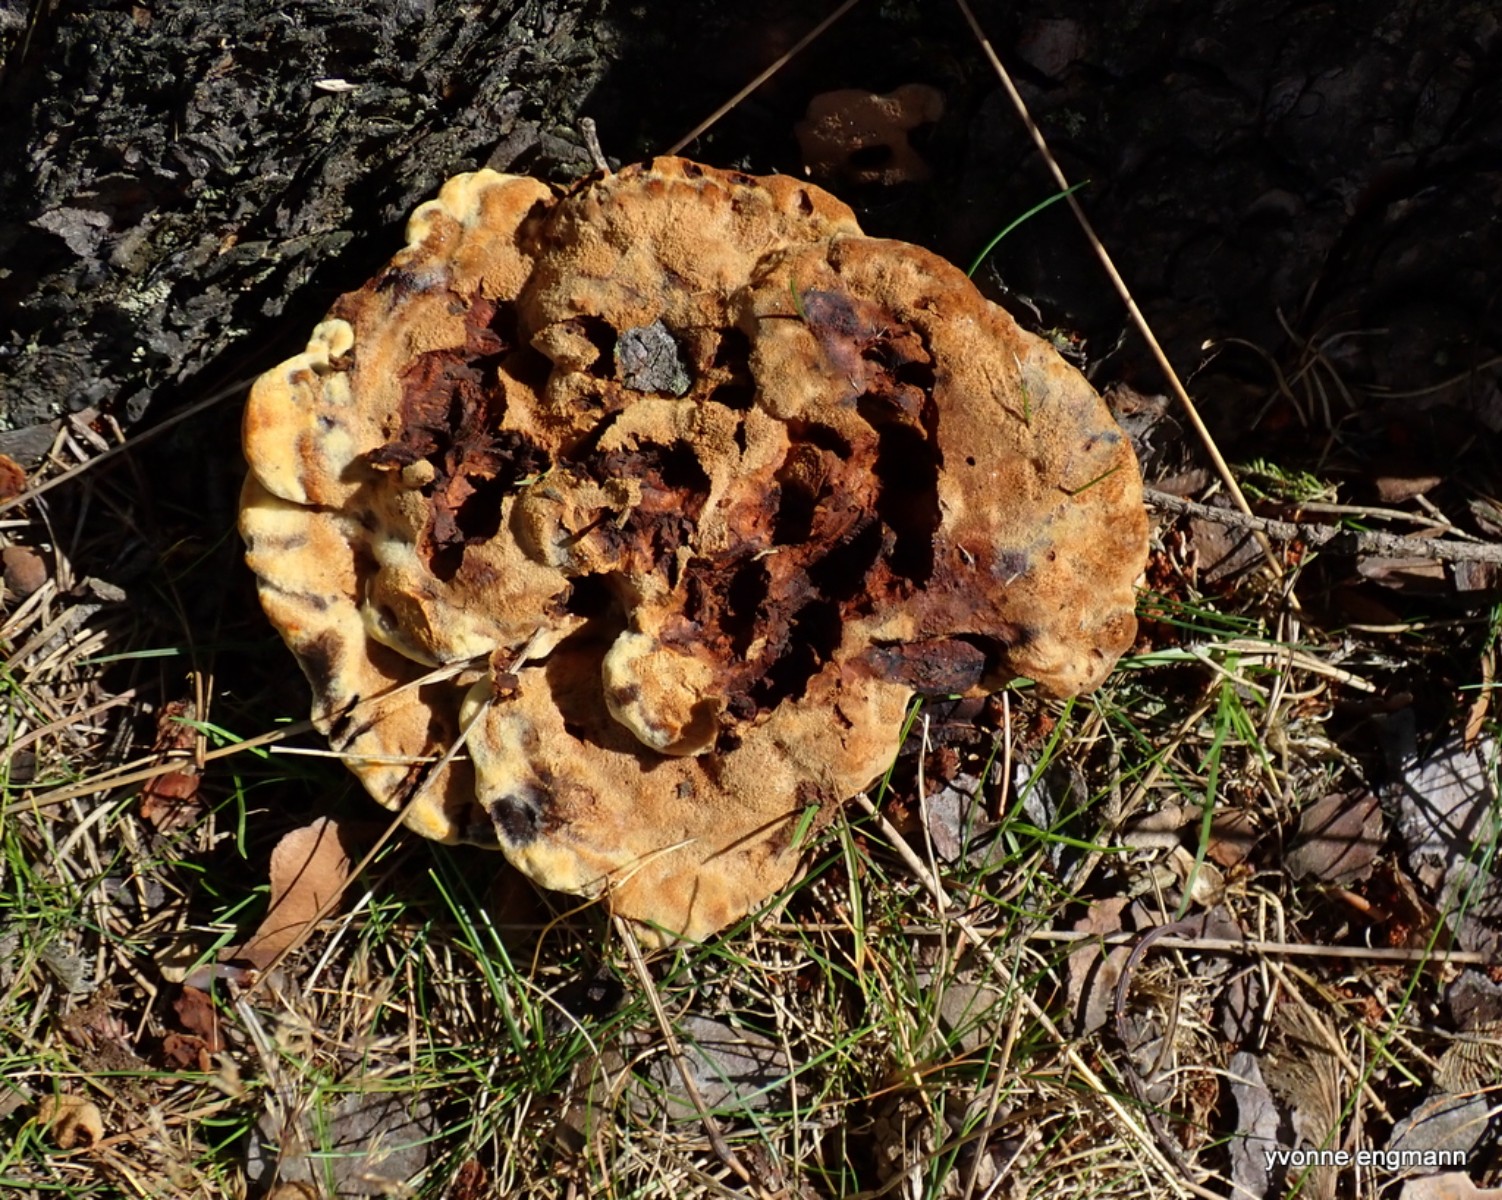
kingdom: Fungi
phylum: Basidiomycota
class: Agaricomycetes
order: Polyporales
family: Laetiporaceae
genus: Phaeolus
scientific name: Phaeolus schweinitzii
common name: brunporesvamp
